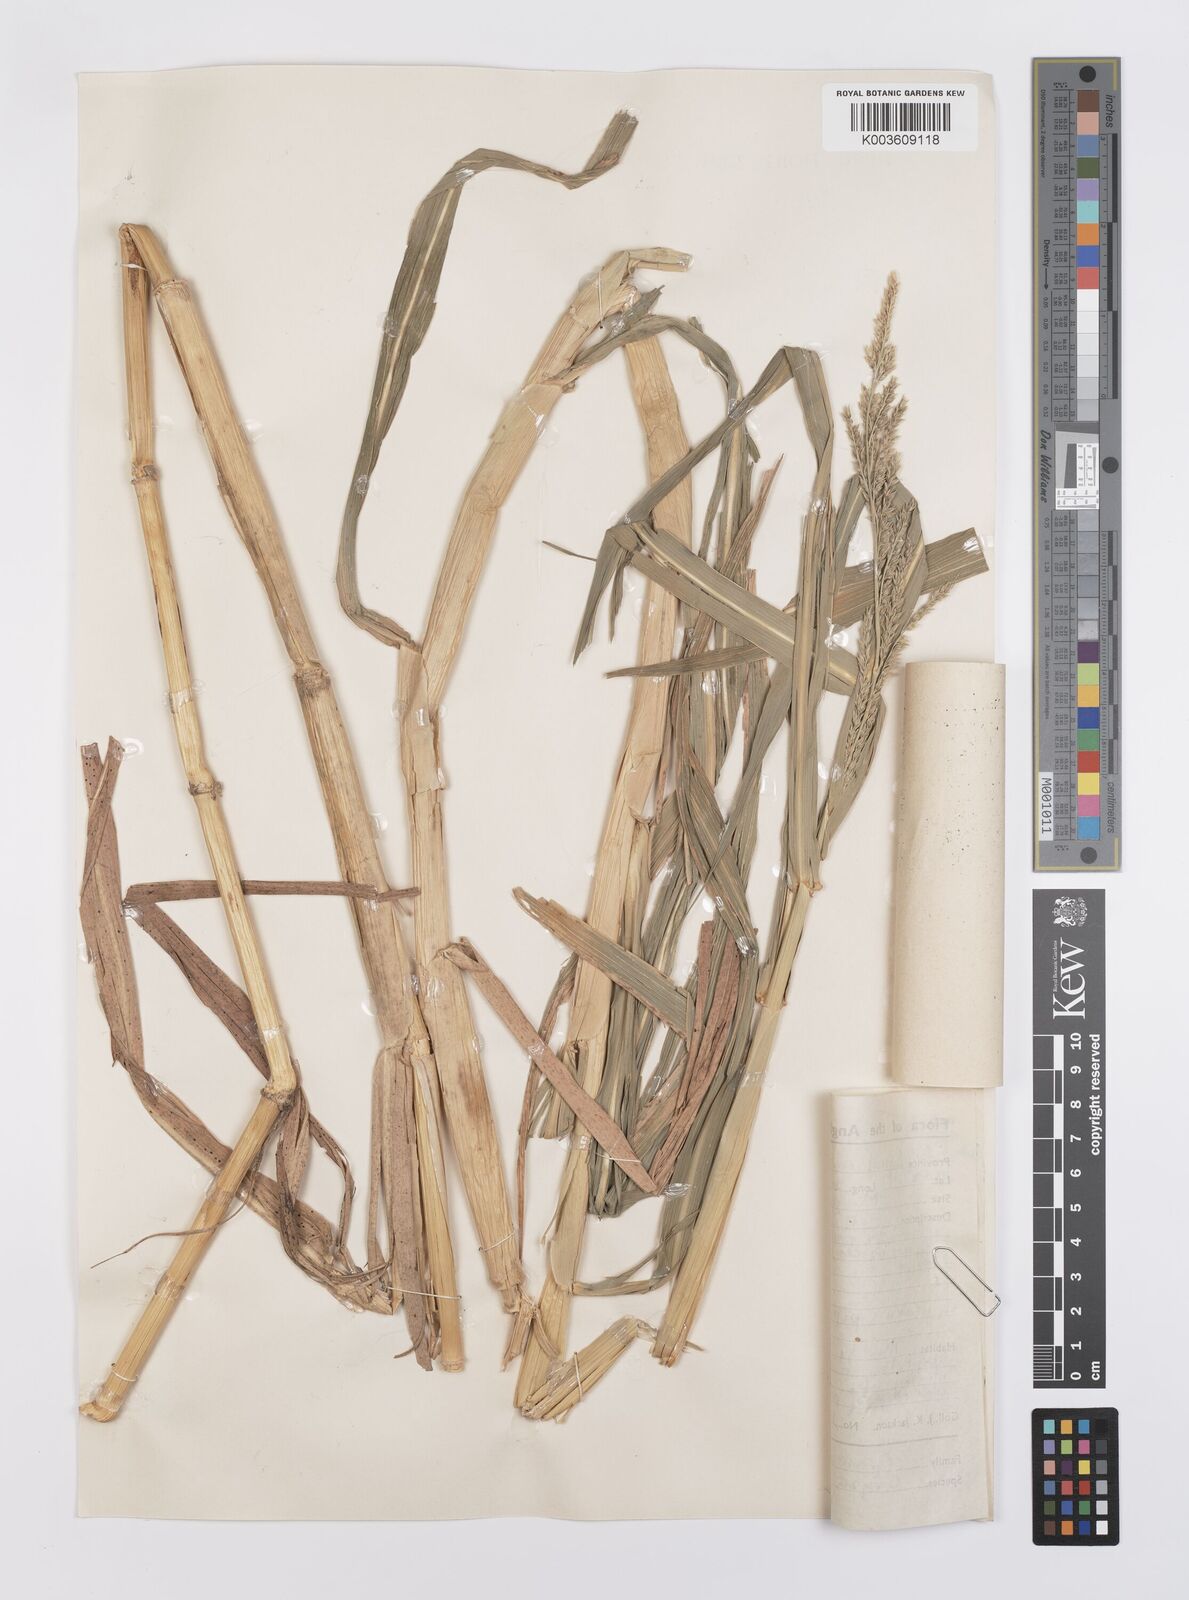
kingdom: Plantae
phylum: Tracheophyta
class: Liliopsida
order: Poales
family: Poaceae
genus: Echinochloa
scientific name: Echinochloa pyramidalis
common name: Antelope grass
